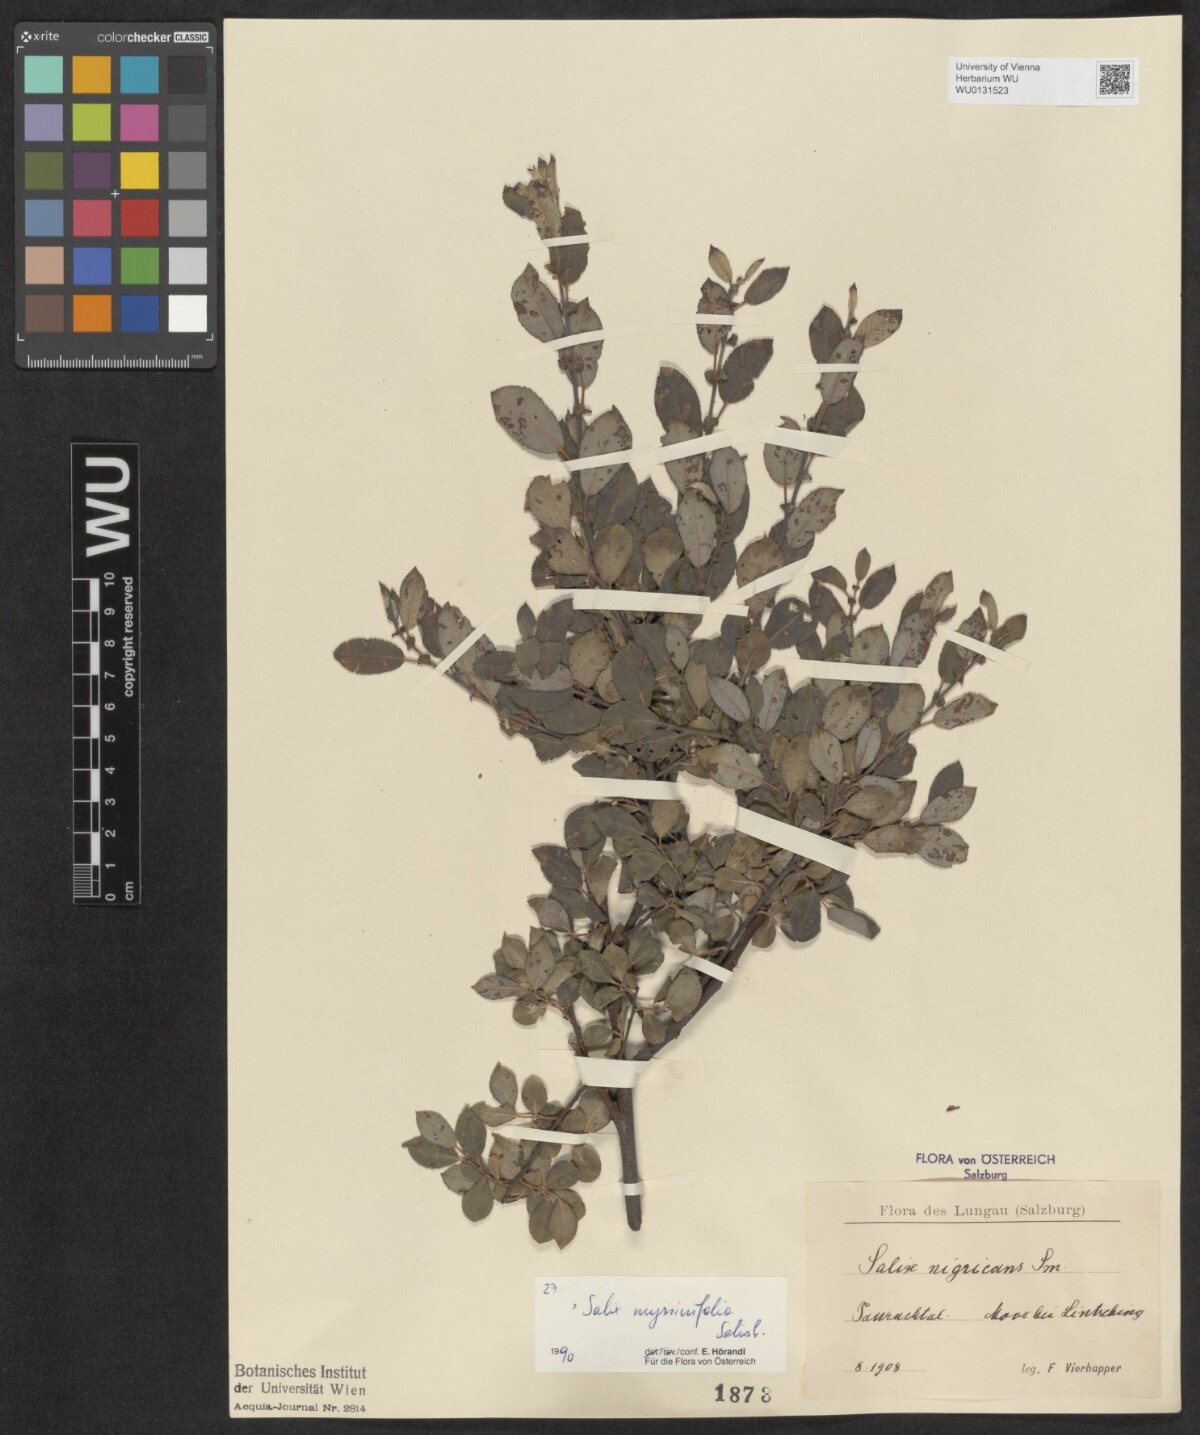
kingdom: Plantae
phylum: Tracheophyta
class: Magnoliopsida
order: Malpighiales
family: Salicaceae
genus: Salix
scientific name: Salix myrsinifolia
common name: Dark-leaved willow
